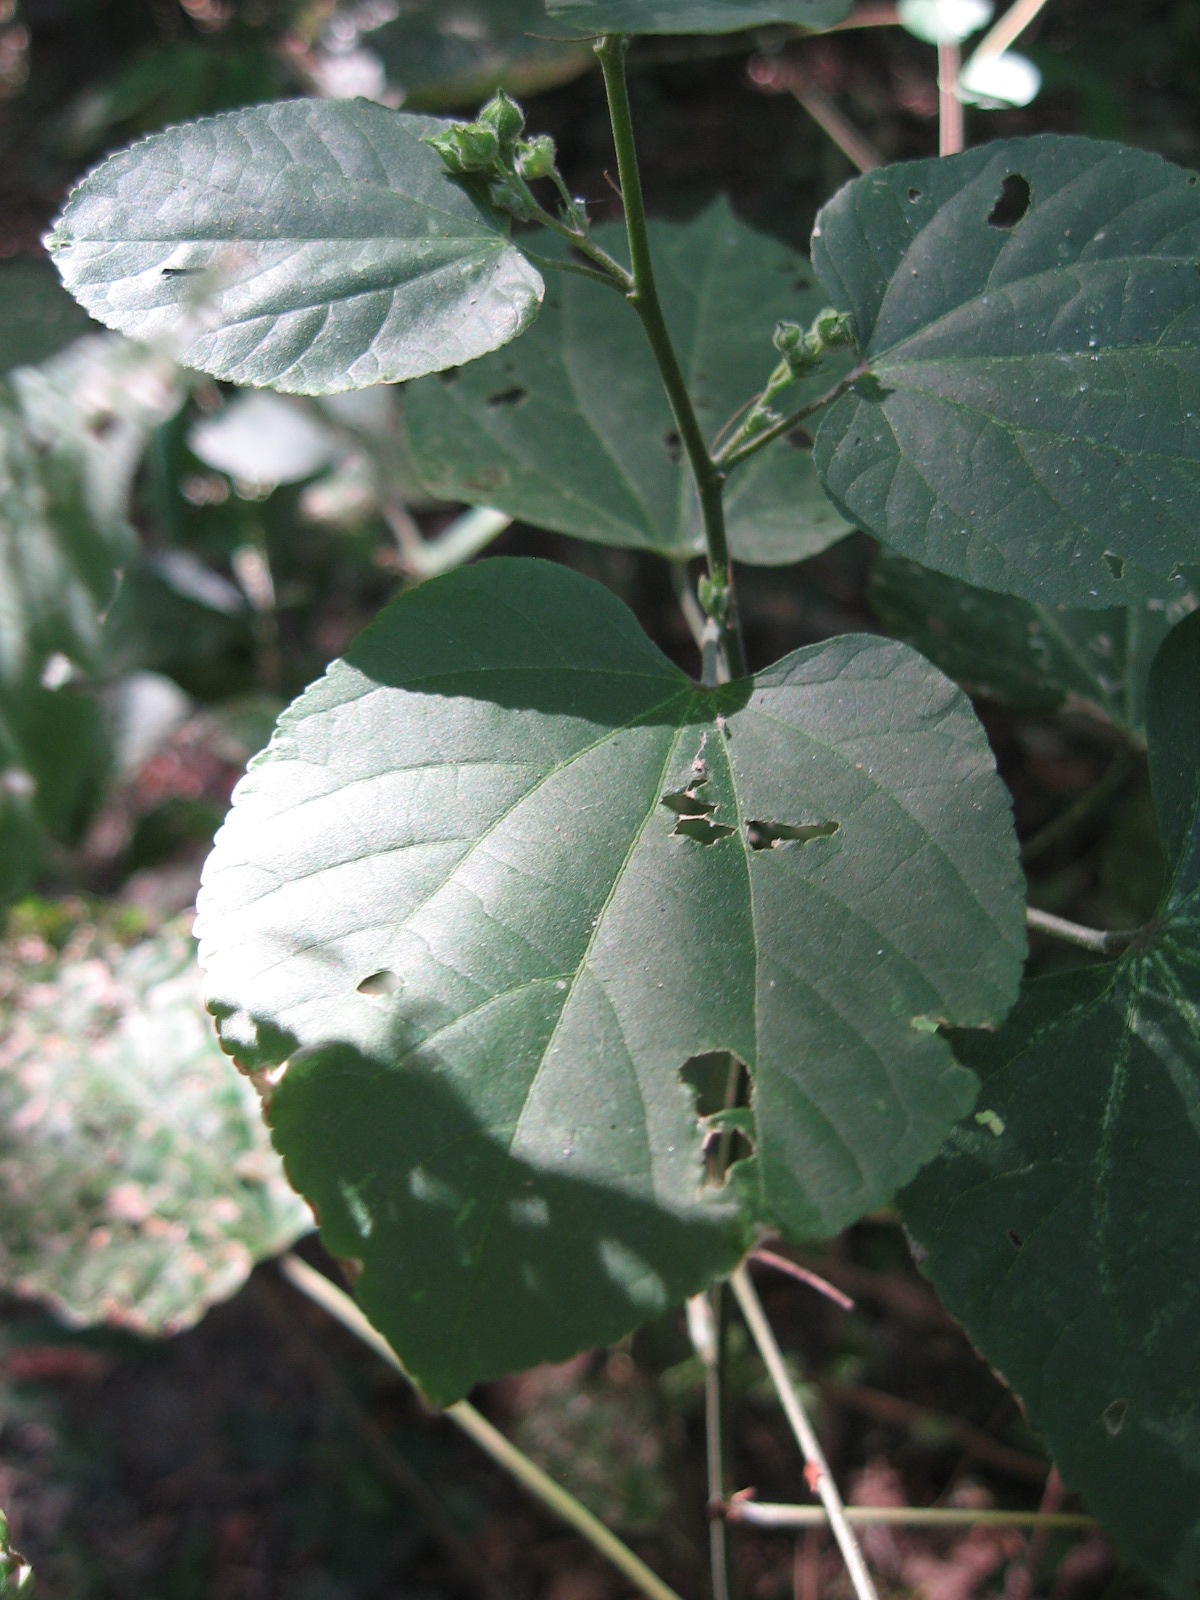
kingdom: Plantae
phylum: Tracheophyta
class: Magnoliopsida
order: Malvales
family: Malvaceae
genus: Allosidastrum
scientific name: Allosidastrum pyramidatum
